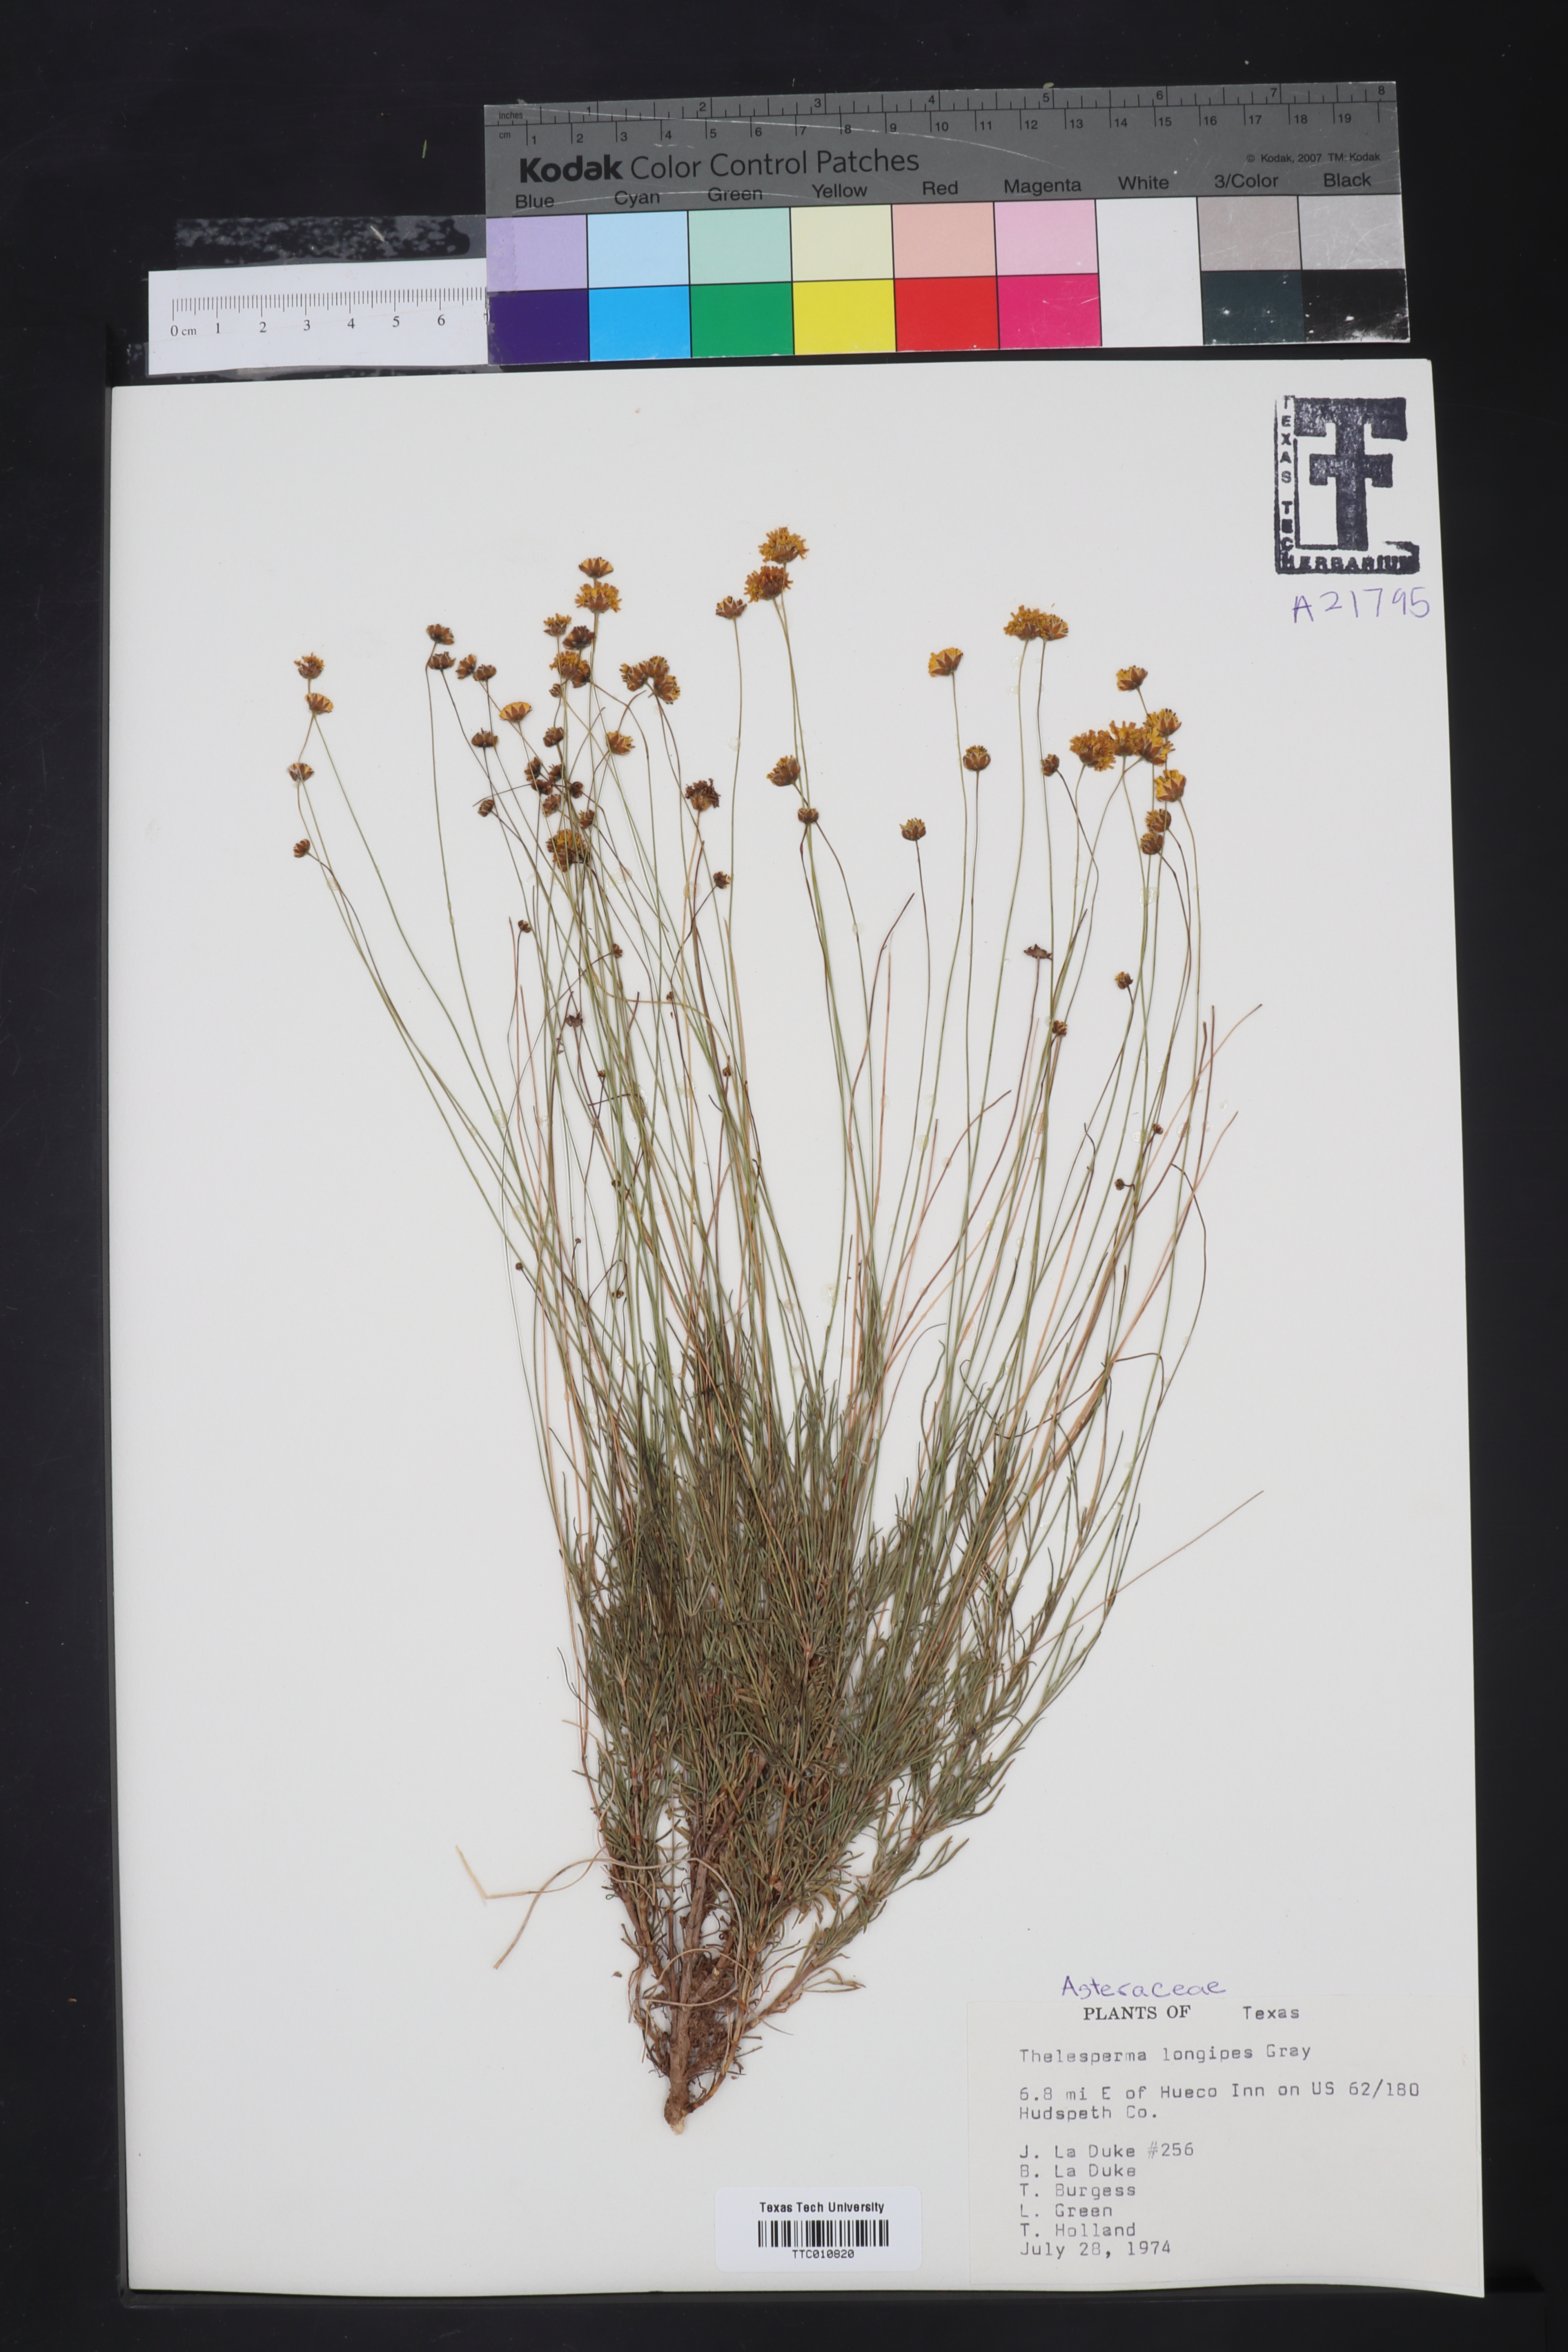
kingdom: Plantae
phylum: Tracheophyta
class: Magnoliopsida
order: Asterales
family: Asteraceae
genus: Thelesperma
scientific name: Thelesperma longipes
